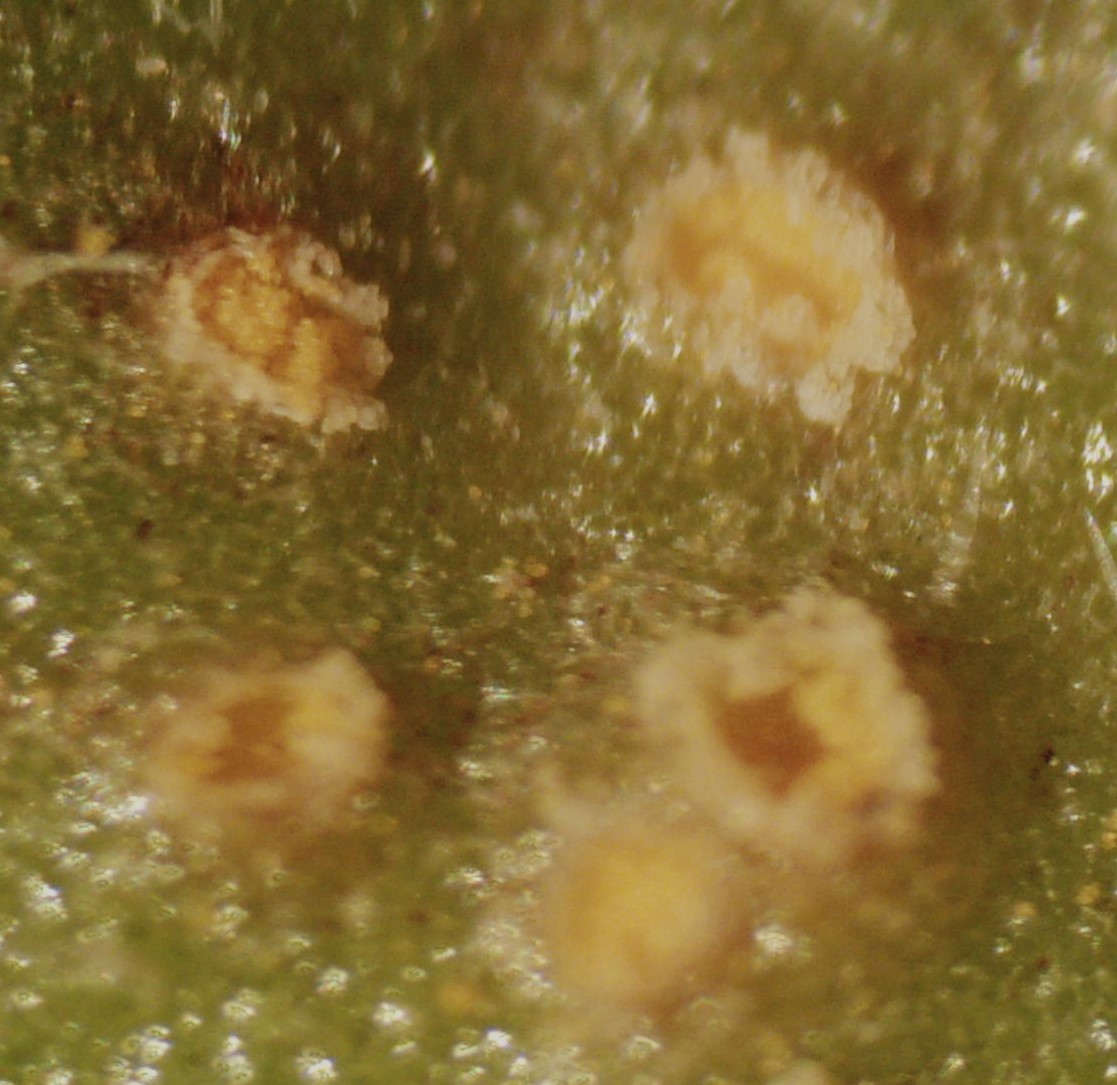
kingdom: Fungi
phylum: Basidiomycota
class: Pucciniomycetes
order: Pucciniales
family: Pucciniaceae
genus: Puccinia
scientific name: Puccinia obscura
